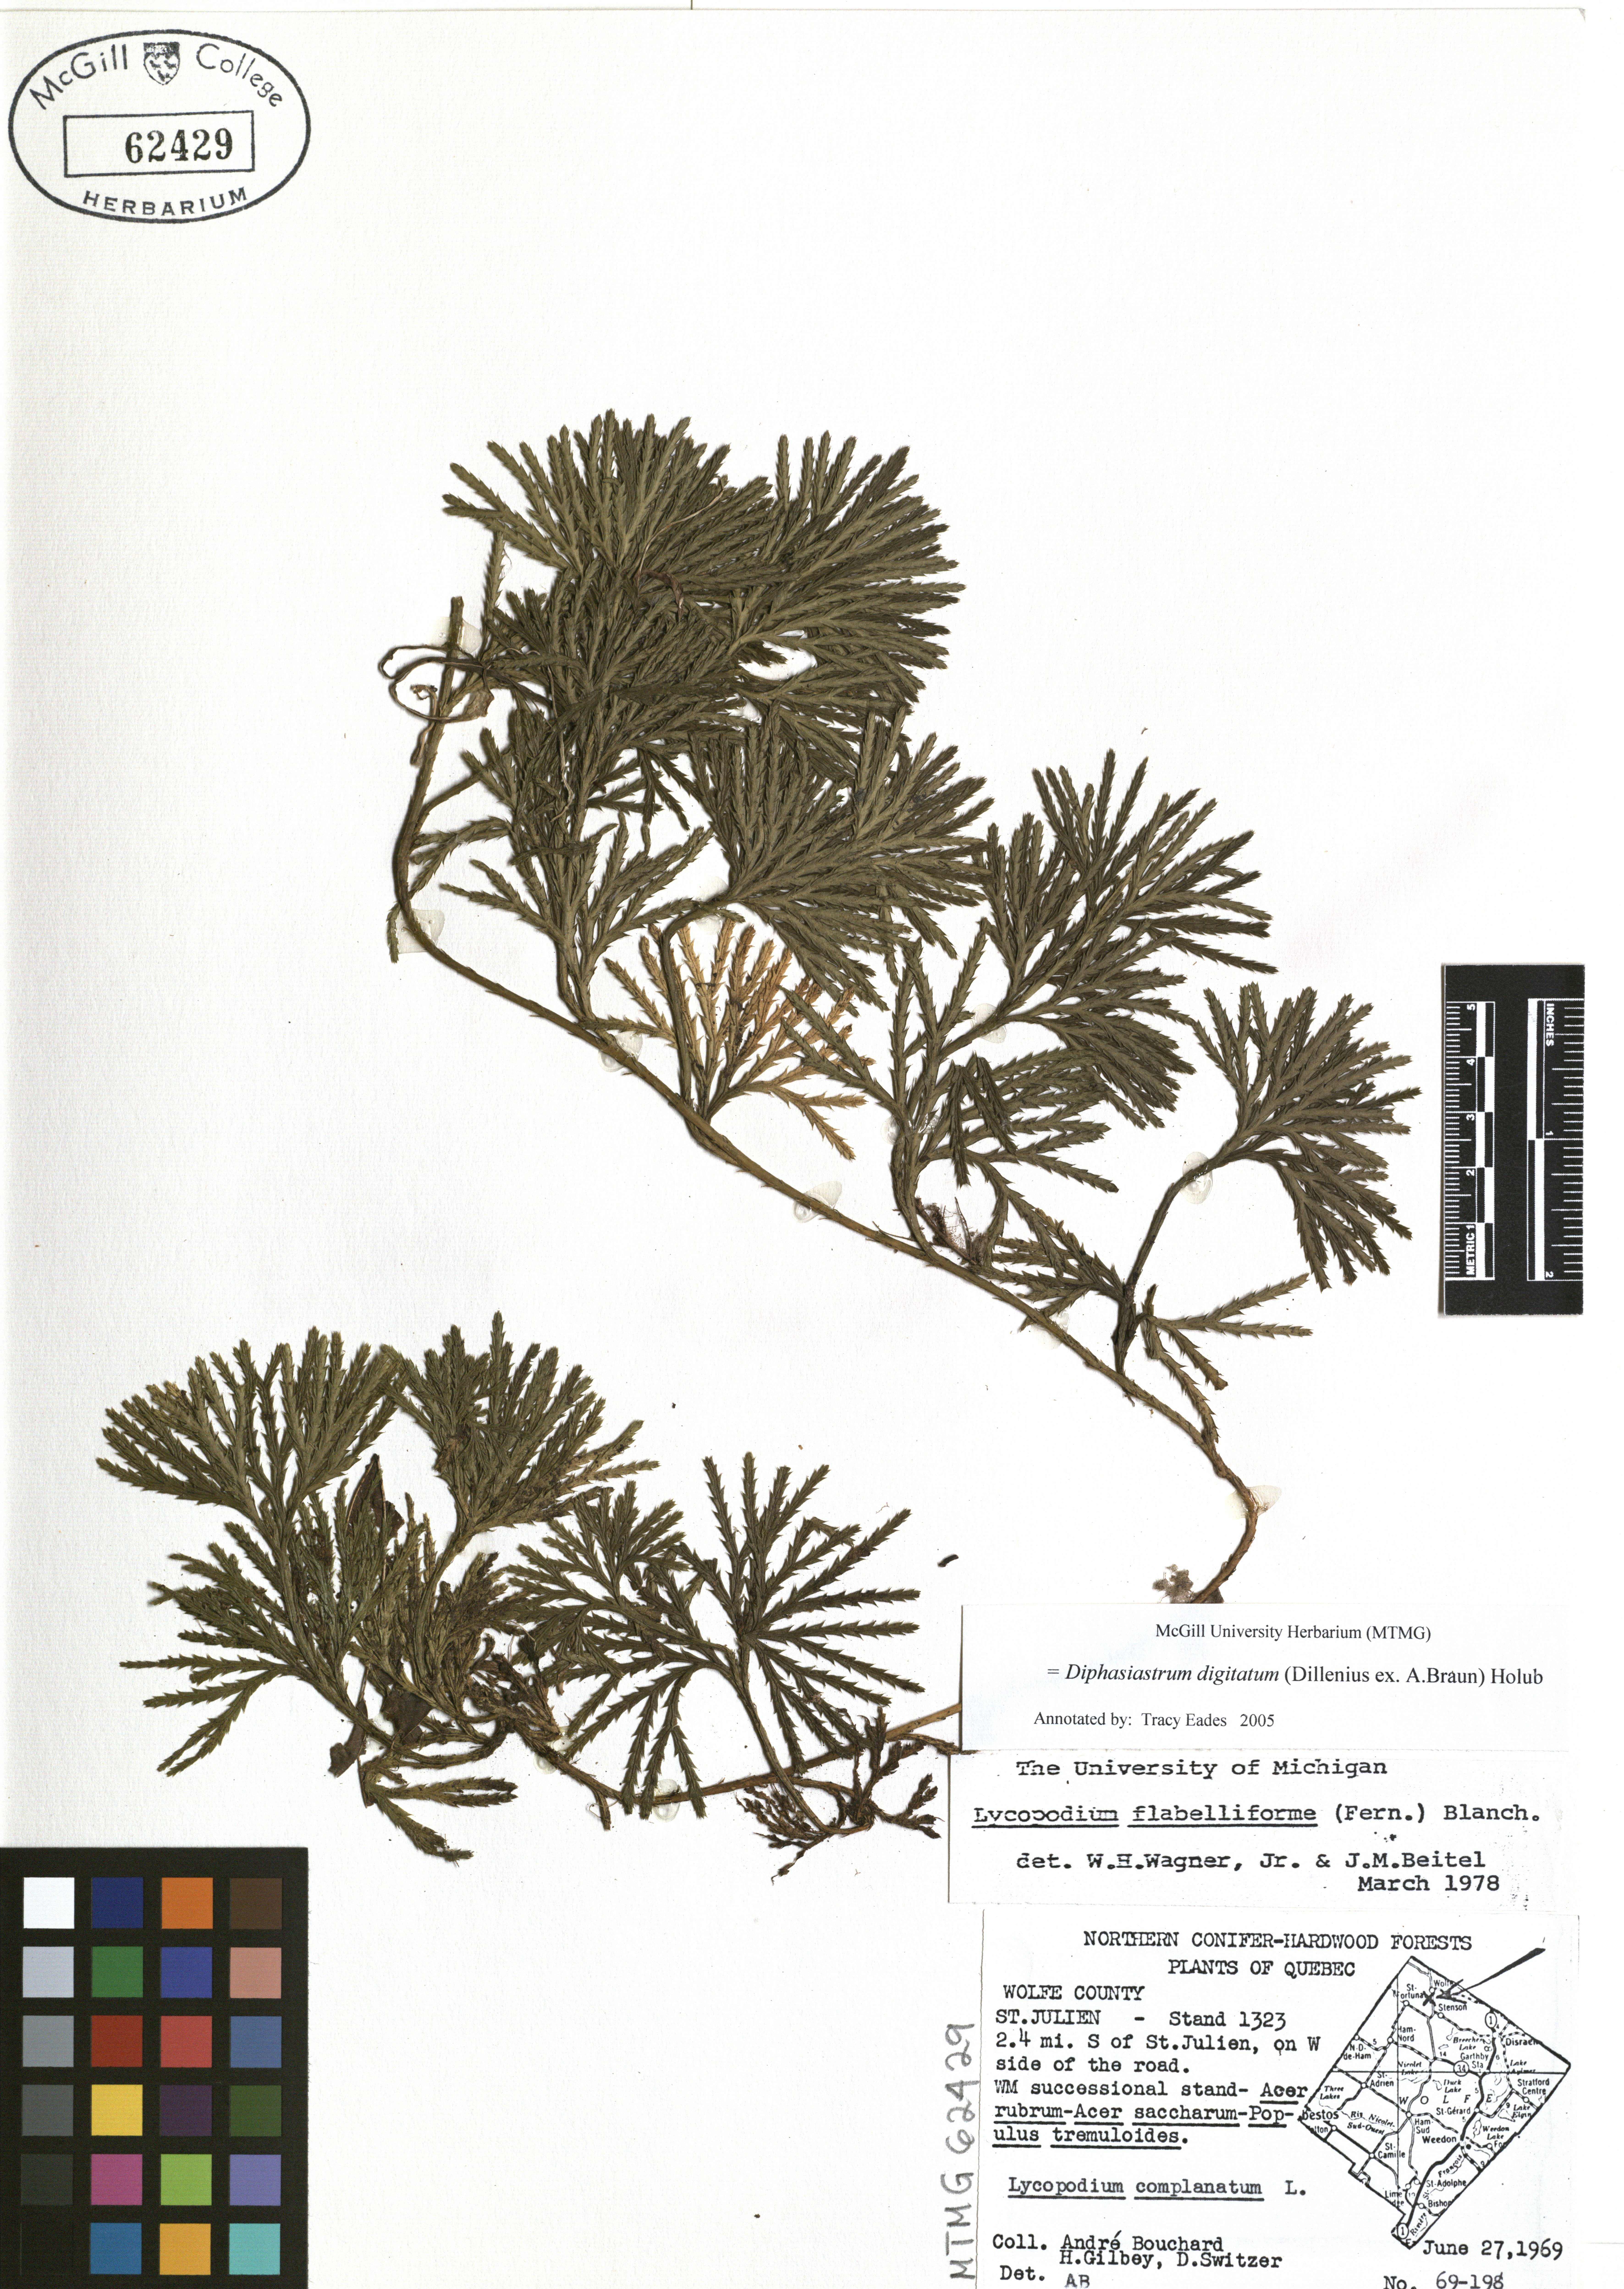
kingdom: Plantae
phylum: Tracheophyta
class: Lycopodiopsida
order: Lycopodiales
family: Lycopodiaceae
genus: Diphasiastrum
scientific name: Diphasiastrum digitatum
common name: Southern running-pine
